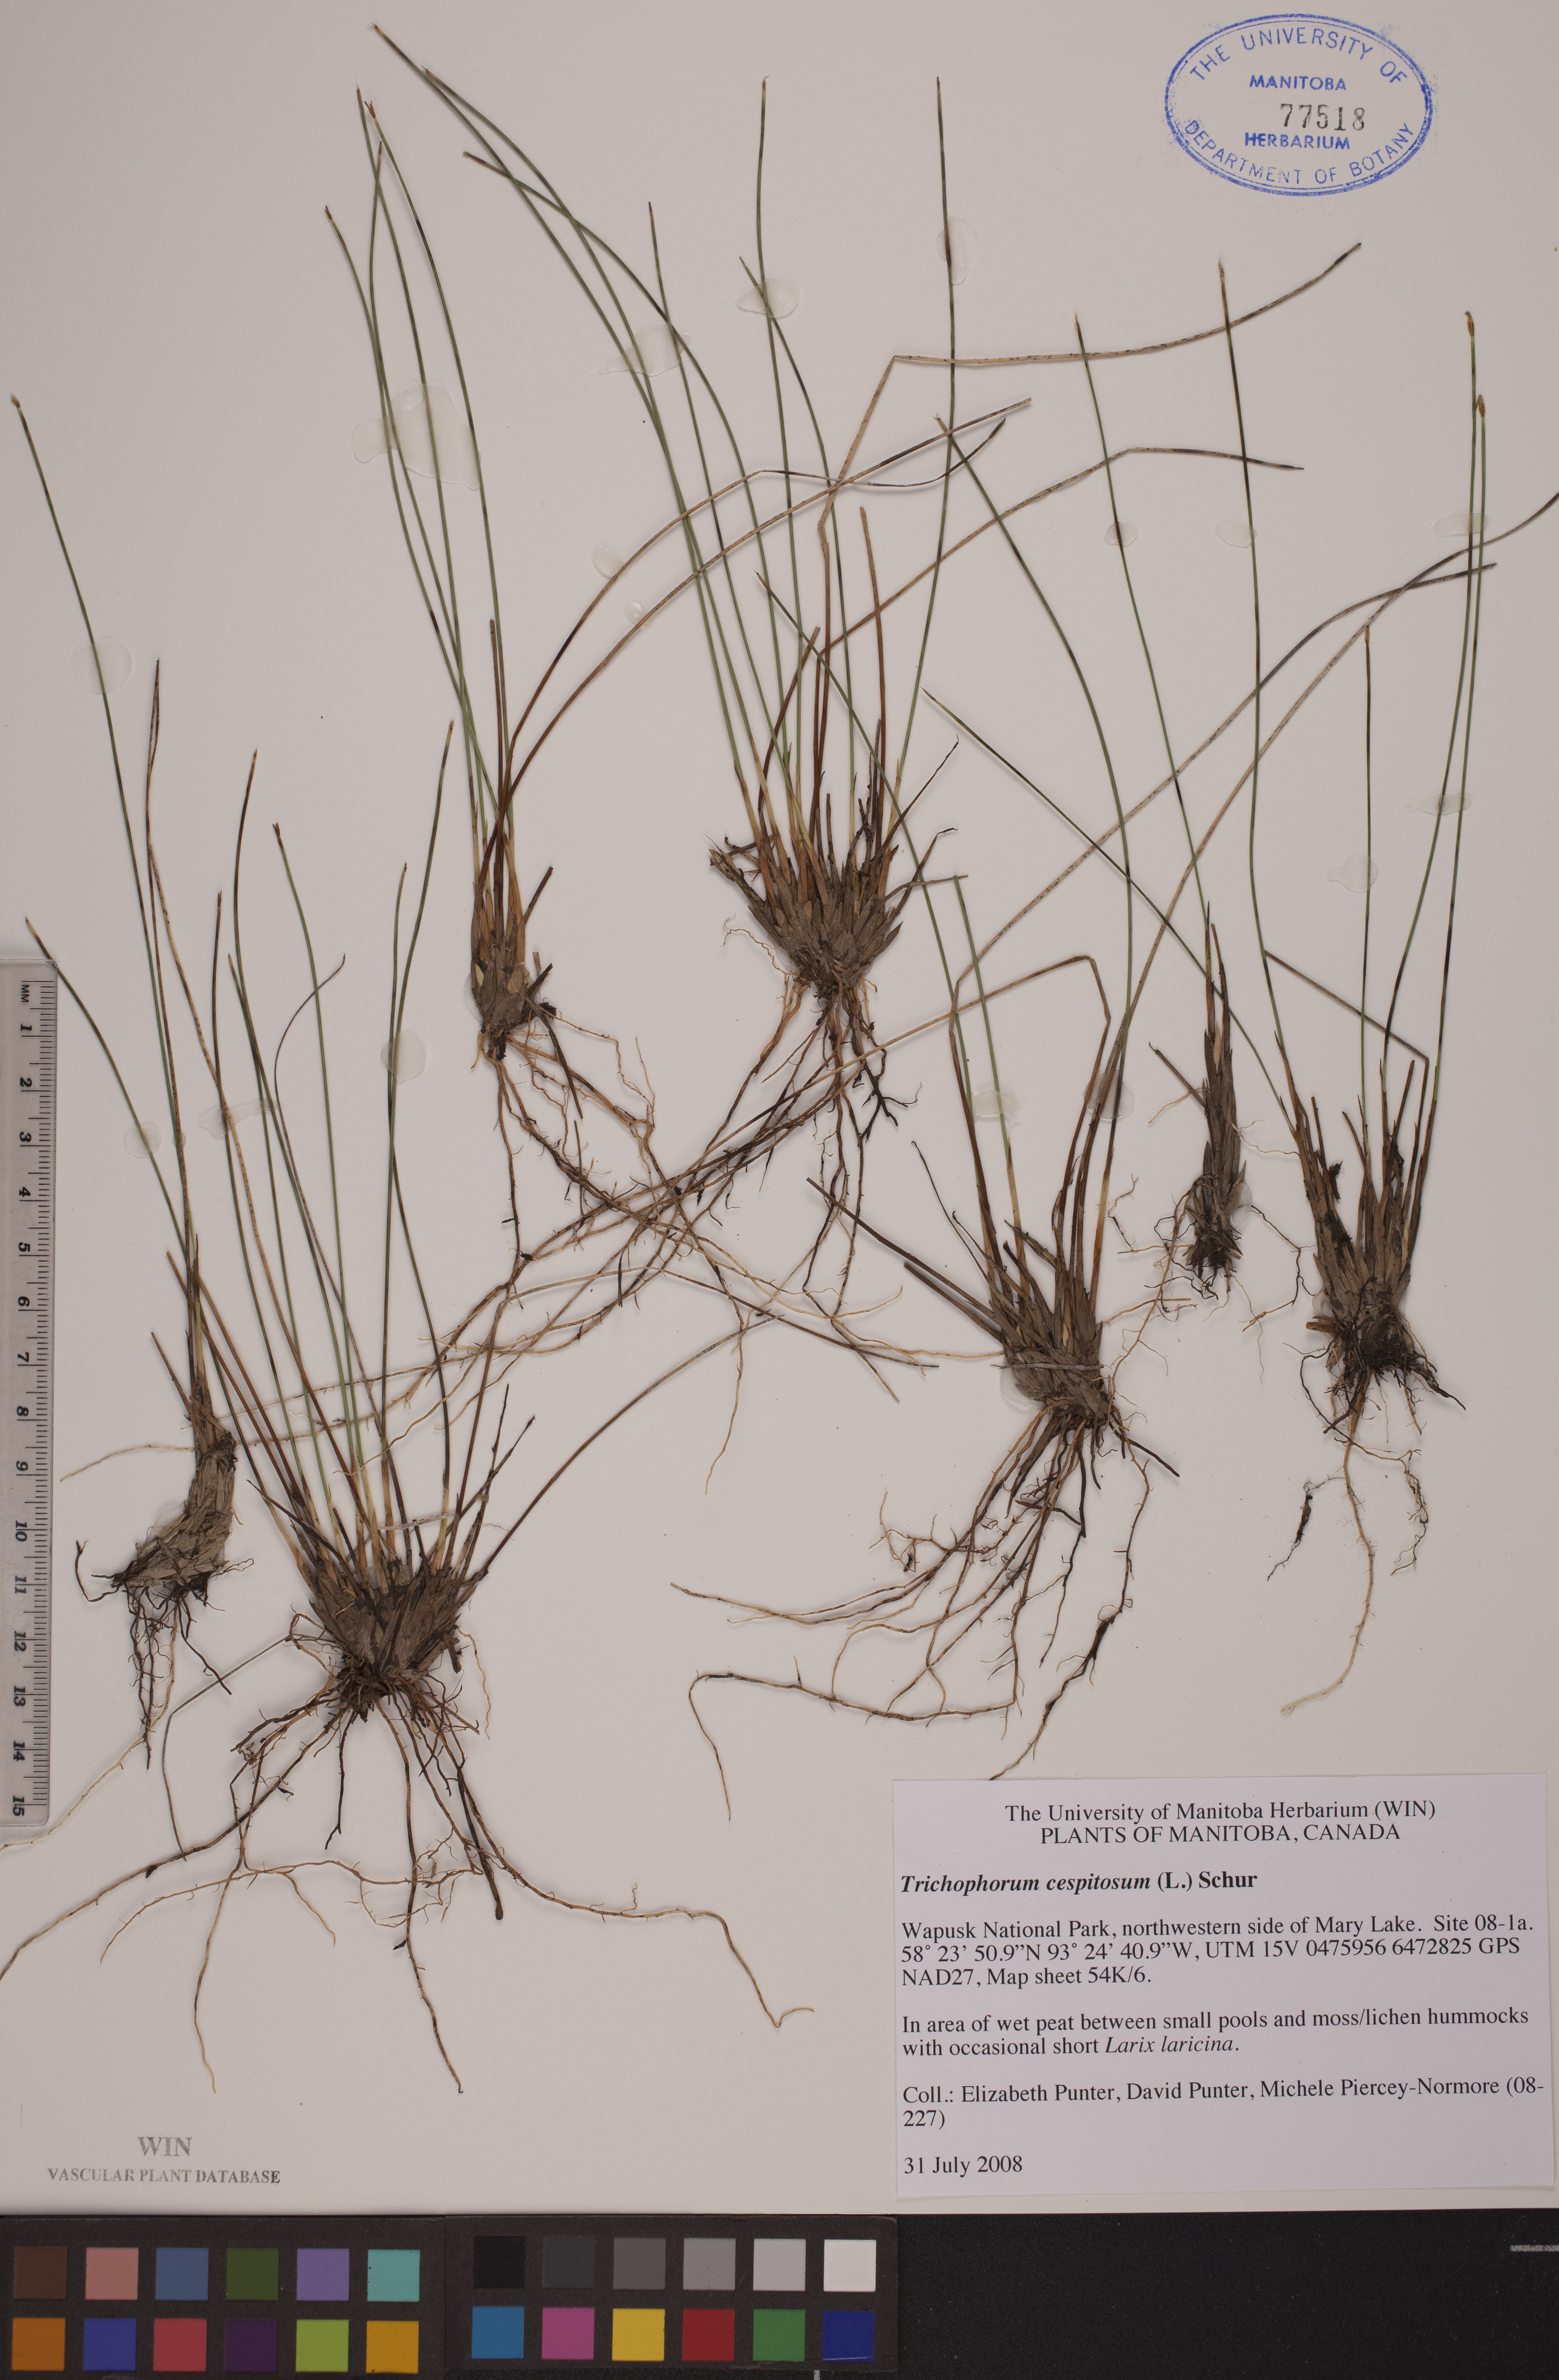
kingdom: Plantae
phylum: Tracheophyta
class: Liliopsida
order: Poales
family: Cyperaceae
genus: Trichophorum
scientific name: Trichophorum cespitosum
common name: Cespitose bulrush
